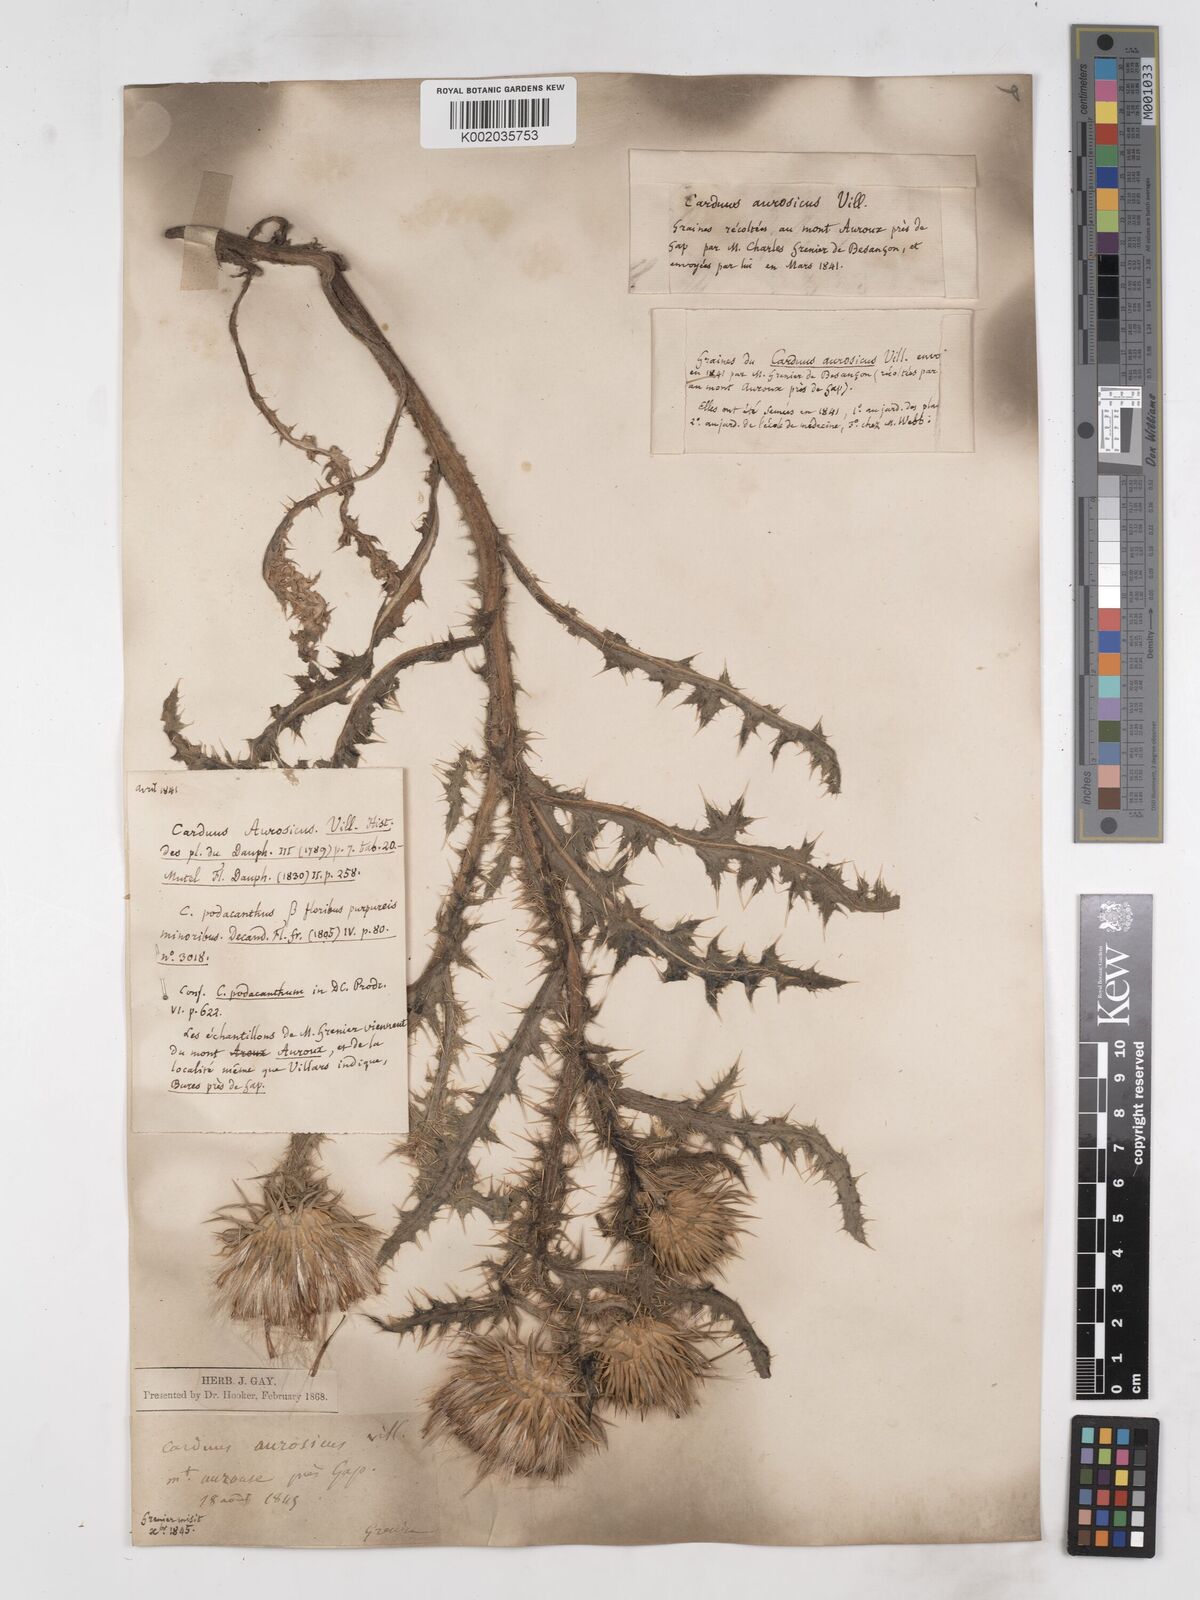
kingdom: Plantae
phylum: Tracheophyta
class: Magnoliopsida
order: Asterales
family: Asteraceae
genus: Carduus
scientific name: Carduus aurosicus
